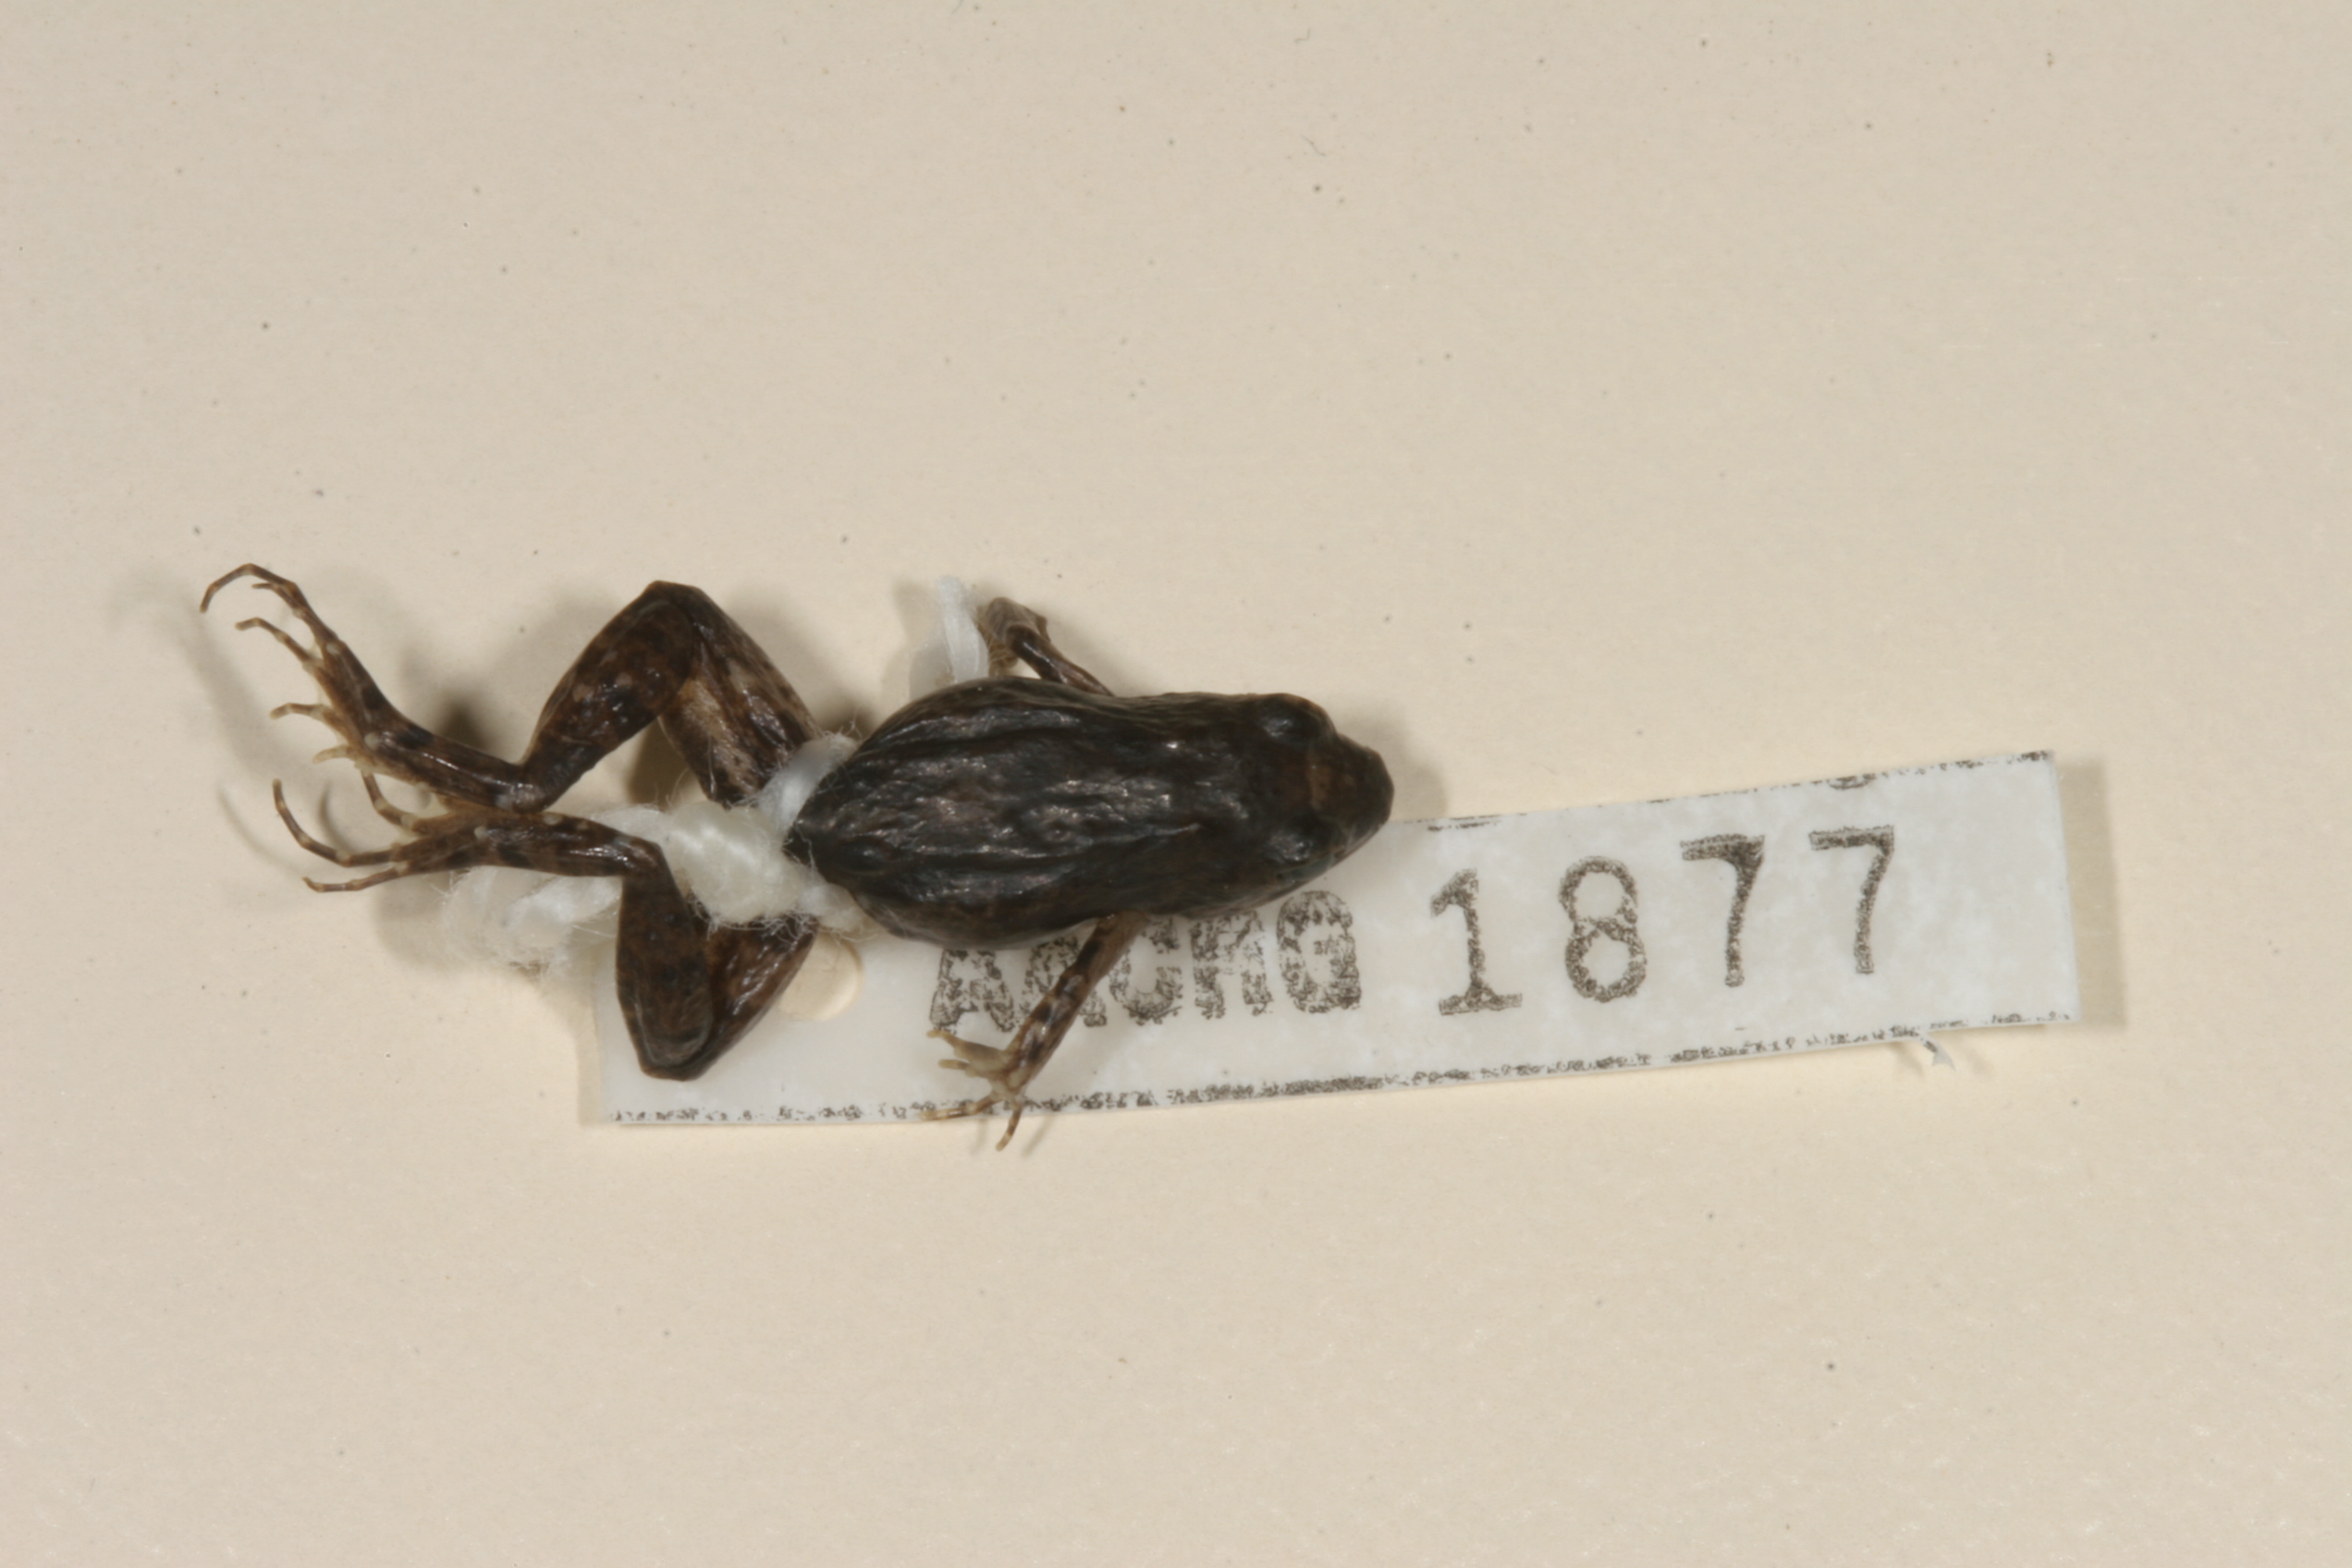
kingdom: Animalia
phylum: Chordata
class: Amphibia
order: Anura
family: Phrynobatrachidae
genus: Phrynobatrachus
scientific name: Phrynobatrachus mababiensis
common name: Dwarf puddle frog
